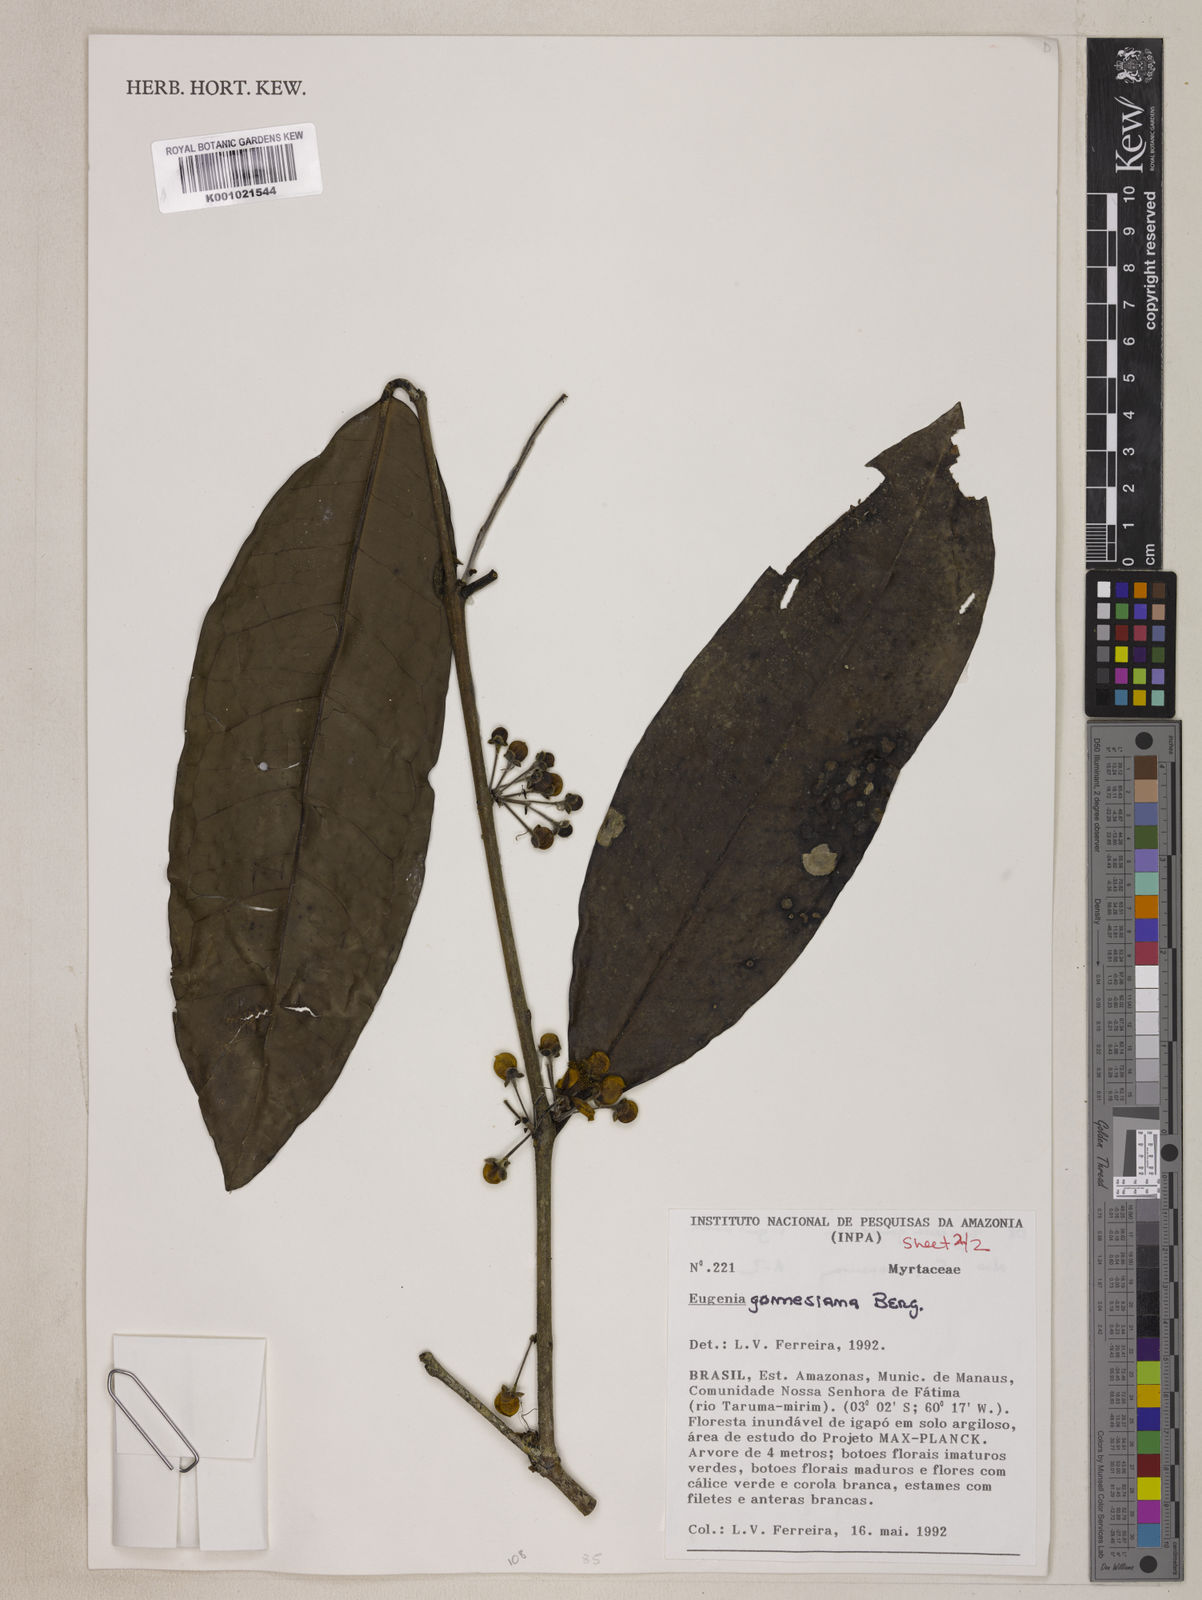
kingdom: Plantae
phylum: Tracheophyta
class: Magnoliopsida
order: Myrtales
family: Myrtaceae
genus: Eugenia
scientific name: Eugenia gomesiana
